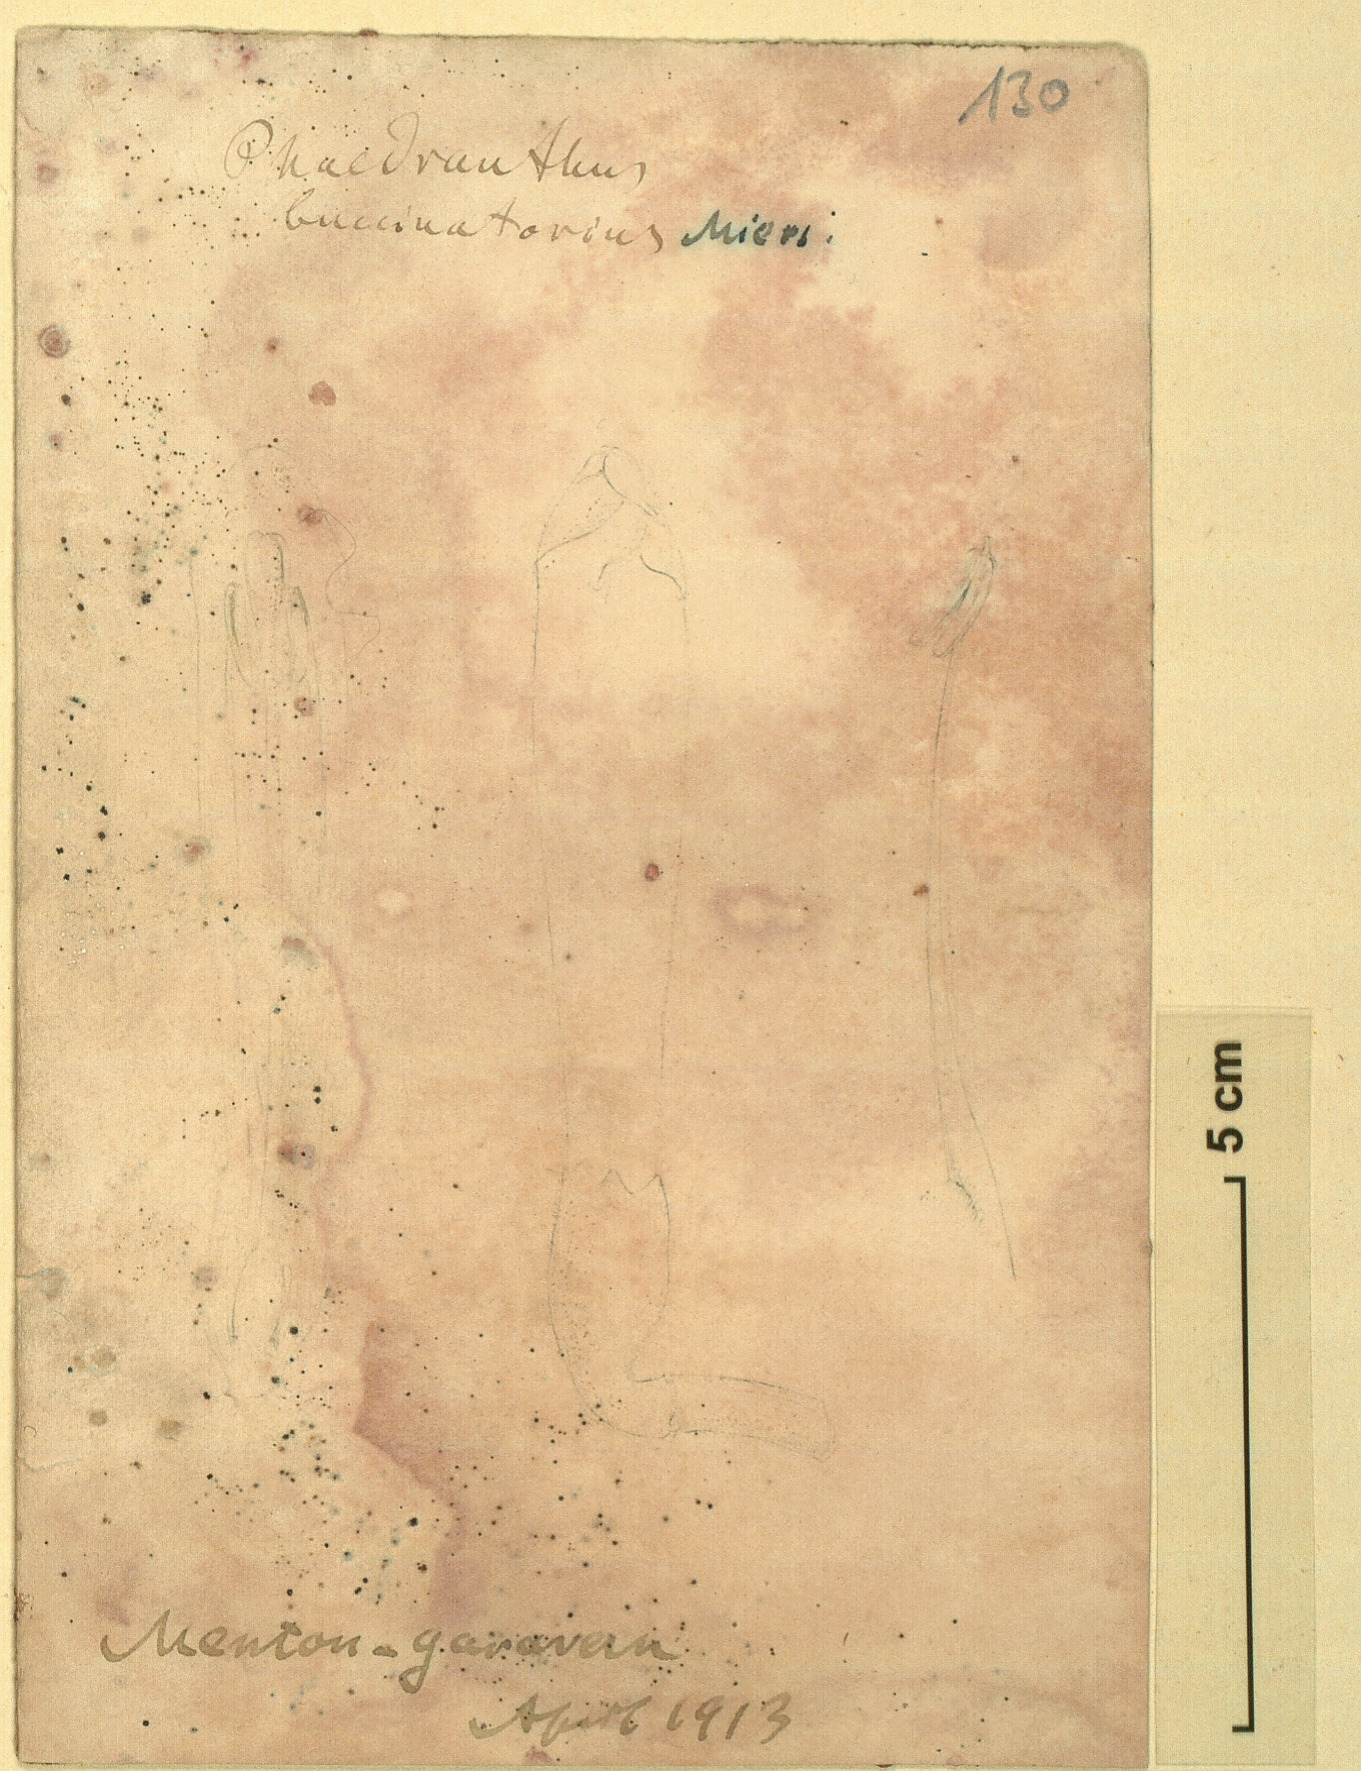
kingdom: Plantae
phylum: Tracheophyta
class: Magnoliopsida
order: Lamiales
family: Bignoniaceae
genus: Amphilophium
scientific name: Amphilophium buccinatorium
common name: Mexican blood-flower
